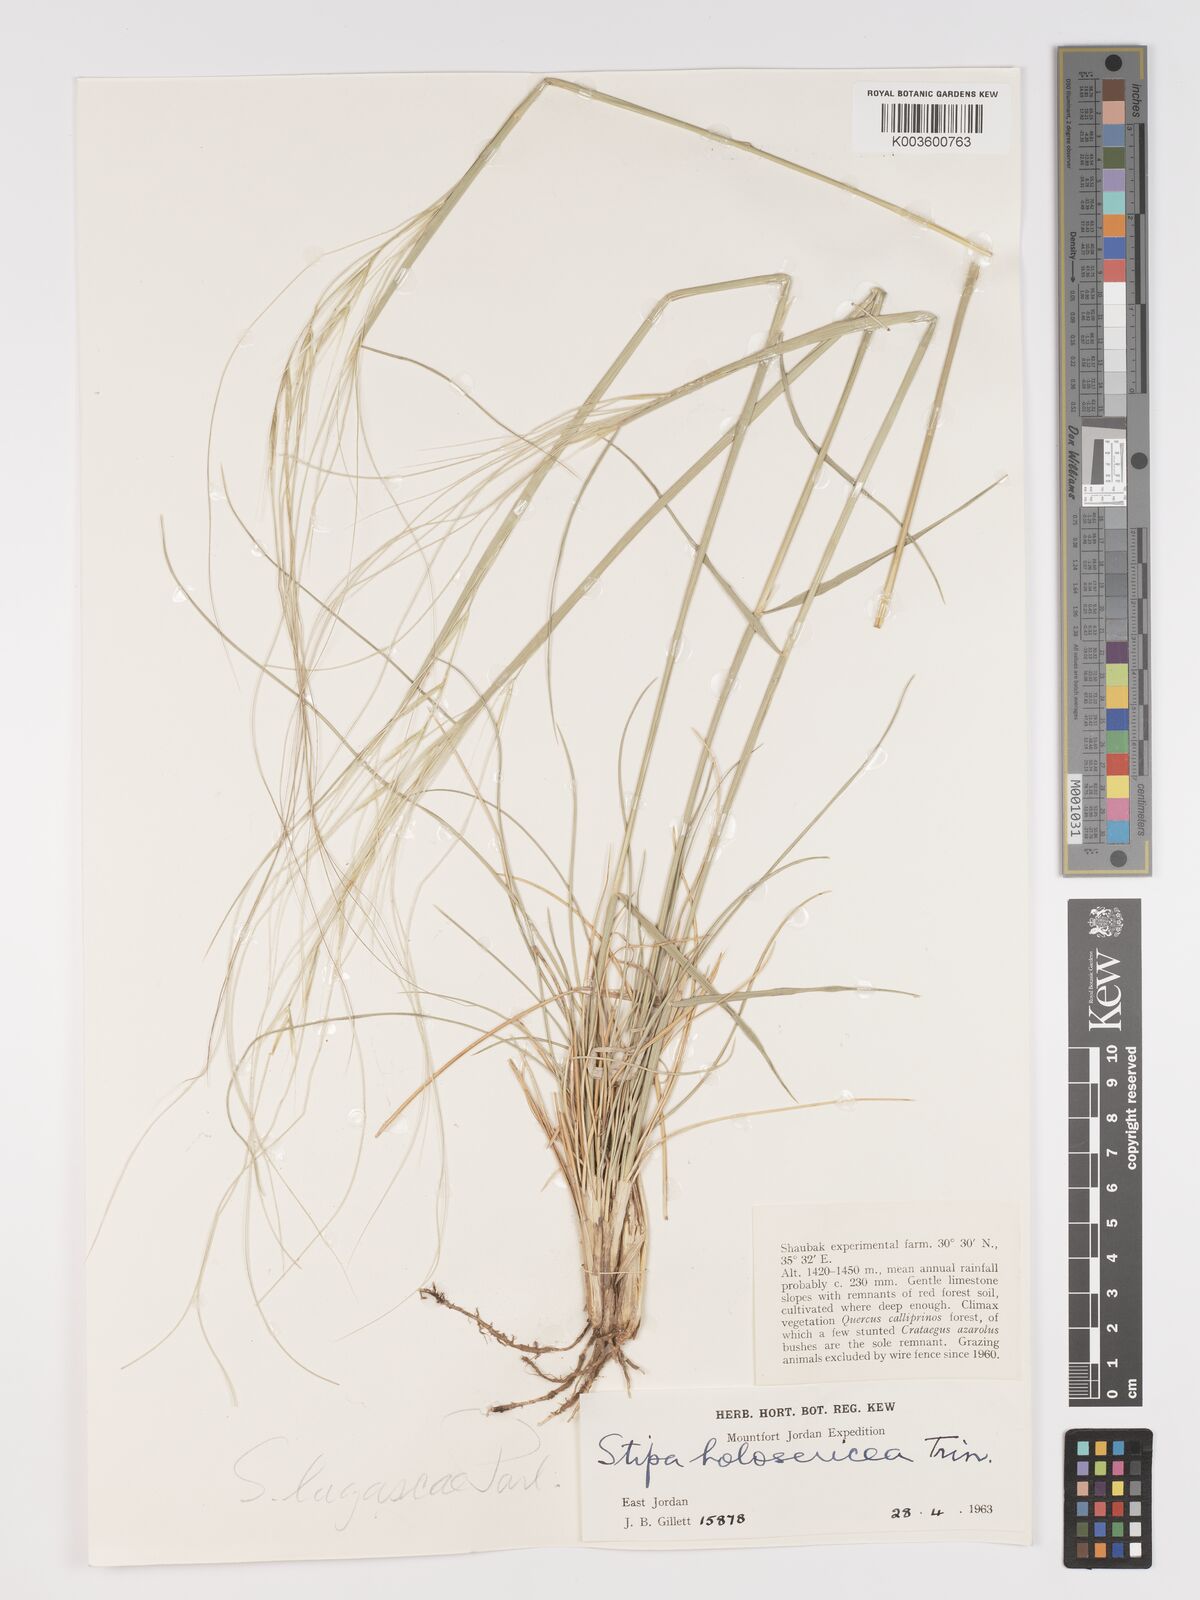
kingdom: Plantae
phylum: Tracheophyta
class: Liliopsida
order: Poales
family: Poaceae
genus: Stipa
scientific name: Stipa lagascae
